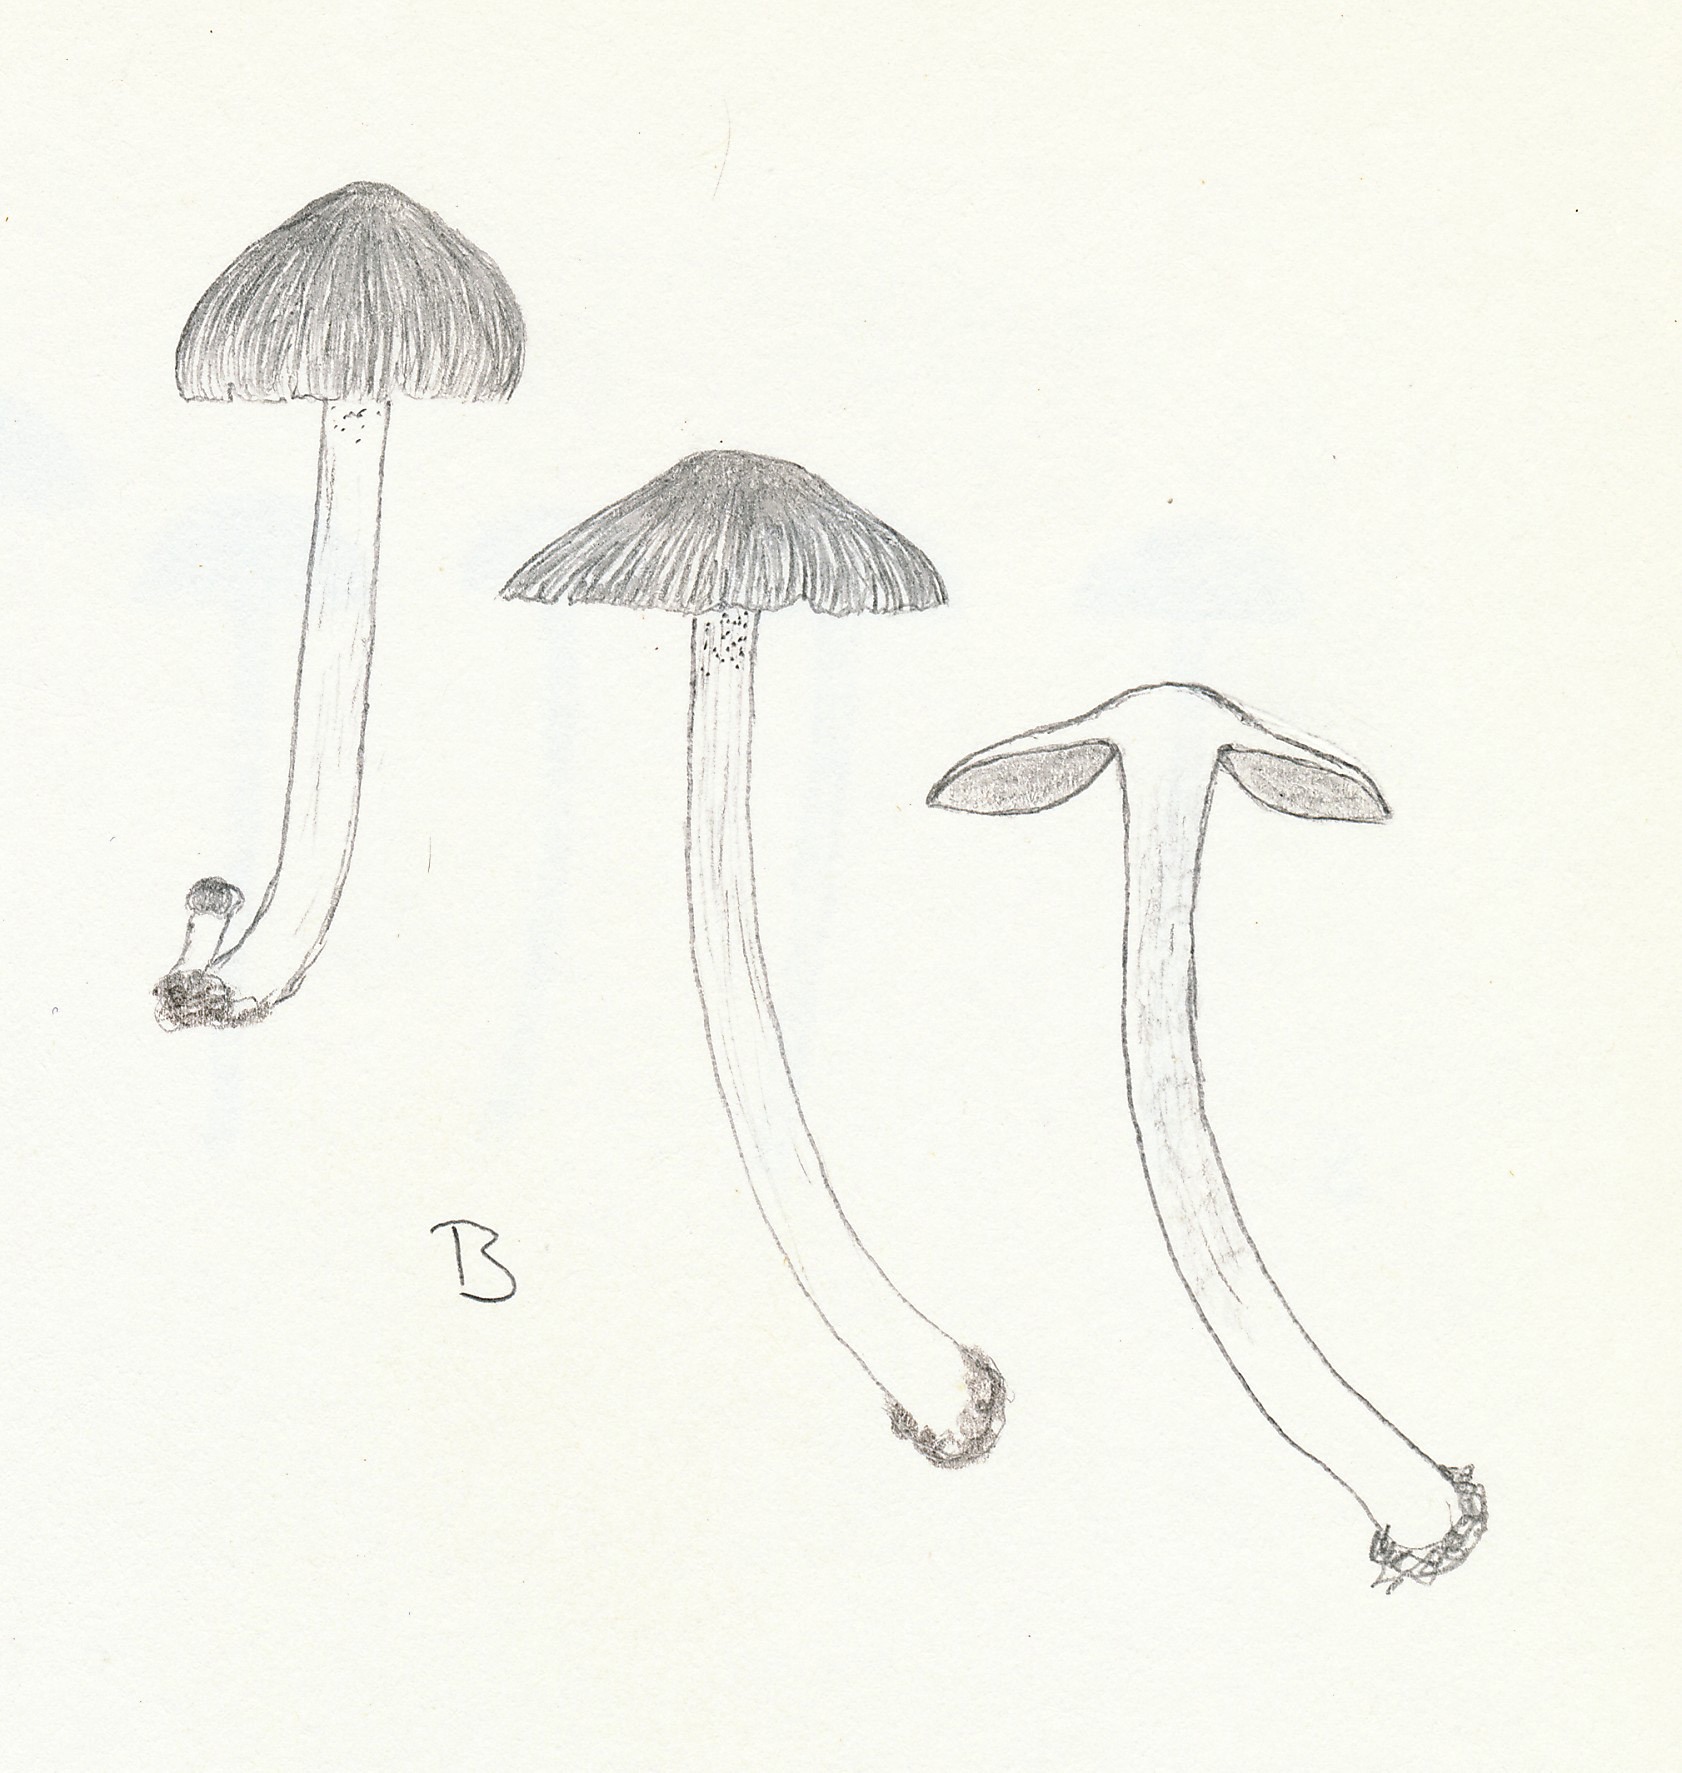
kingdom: Fungi
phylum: Basidiomycota
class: Agaricomycetes
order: Agaricales
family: Inocybaceae
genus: Inocybe
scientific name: Inocybe pusio
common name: violetfodet trævlhat
